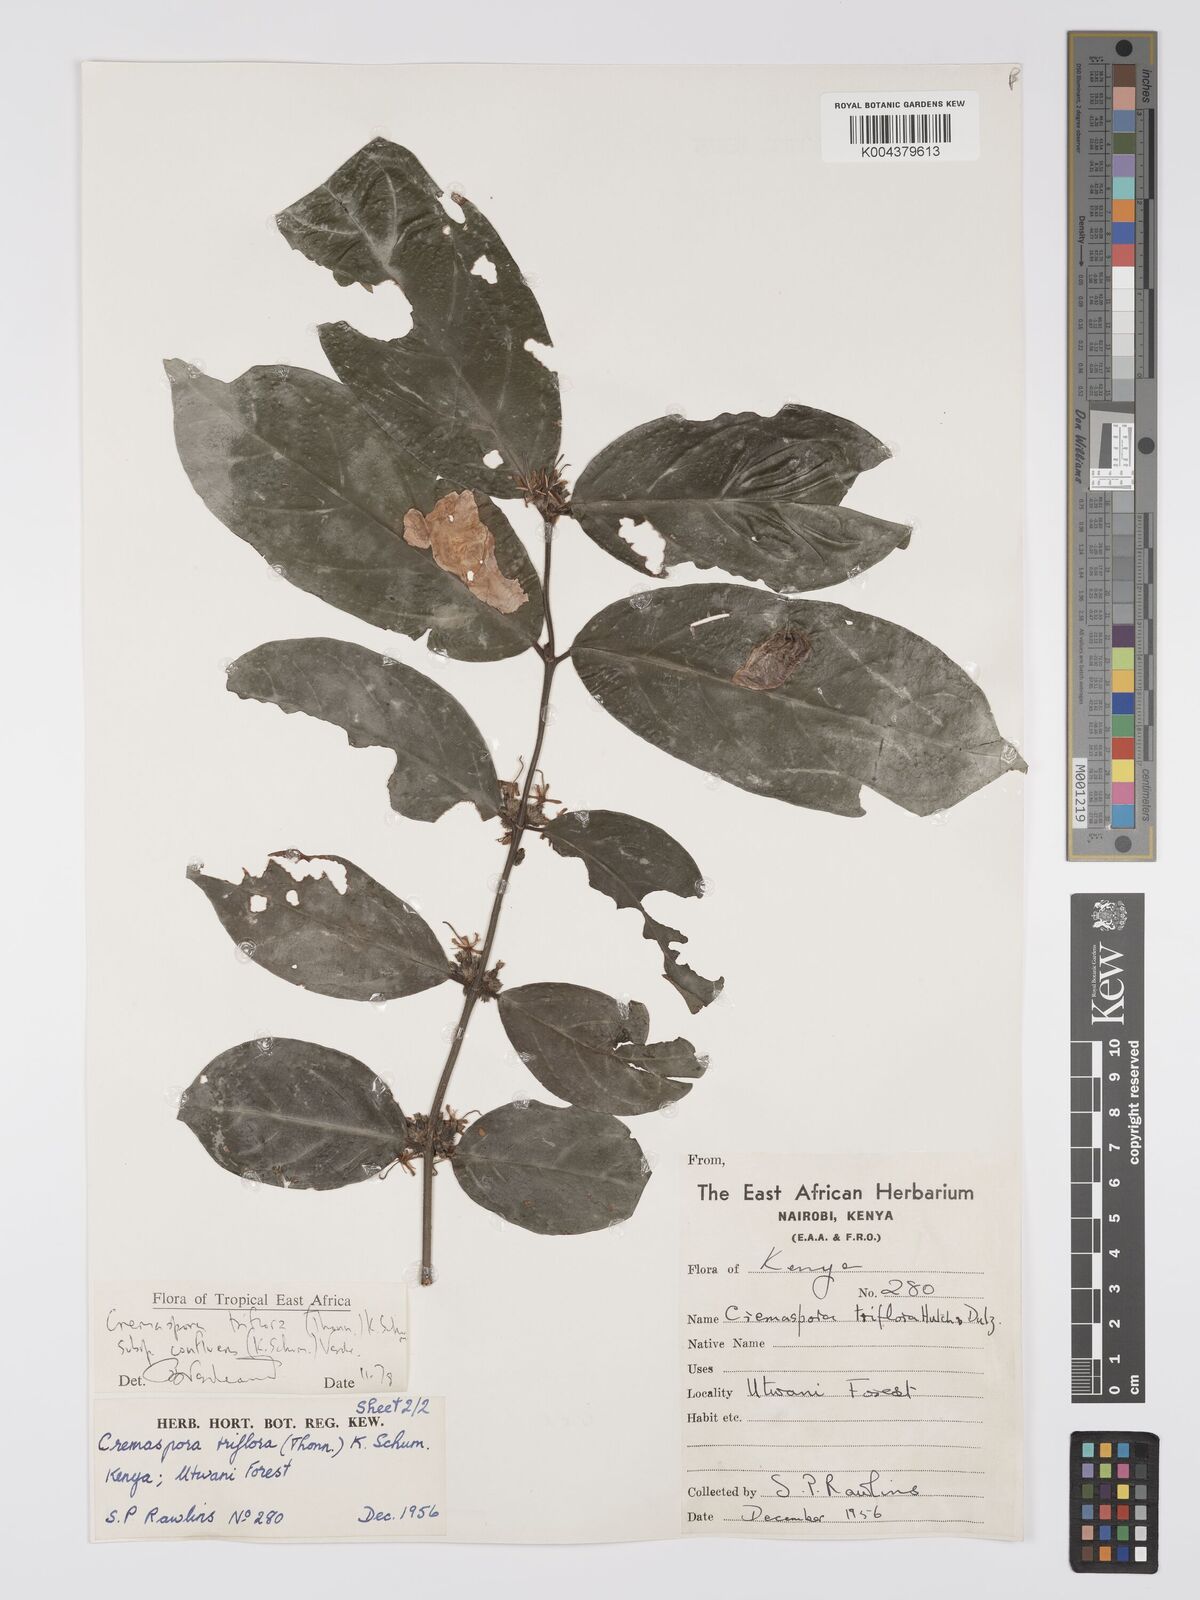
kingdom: Plantae
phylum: Tracheophyta
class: Magnoliopsida
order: Gentianales
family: Rubiaceae
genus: Cremaspora
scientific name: Cremaspora triflora
